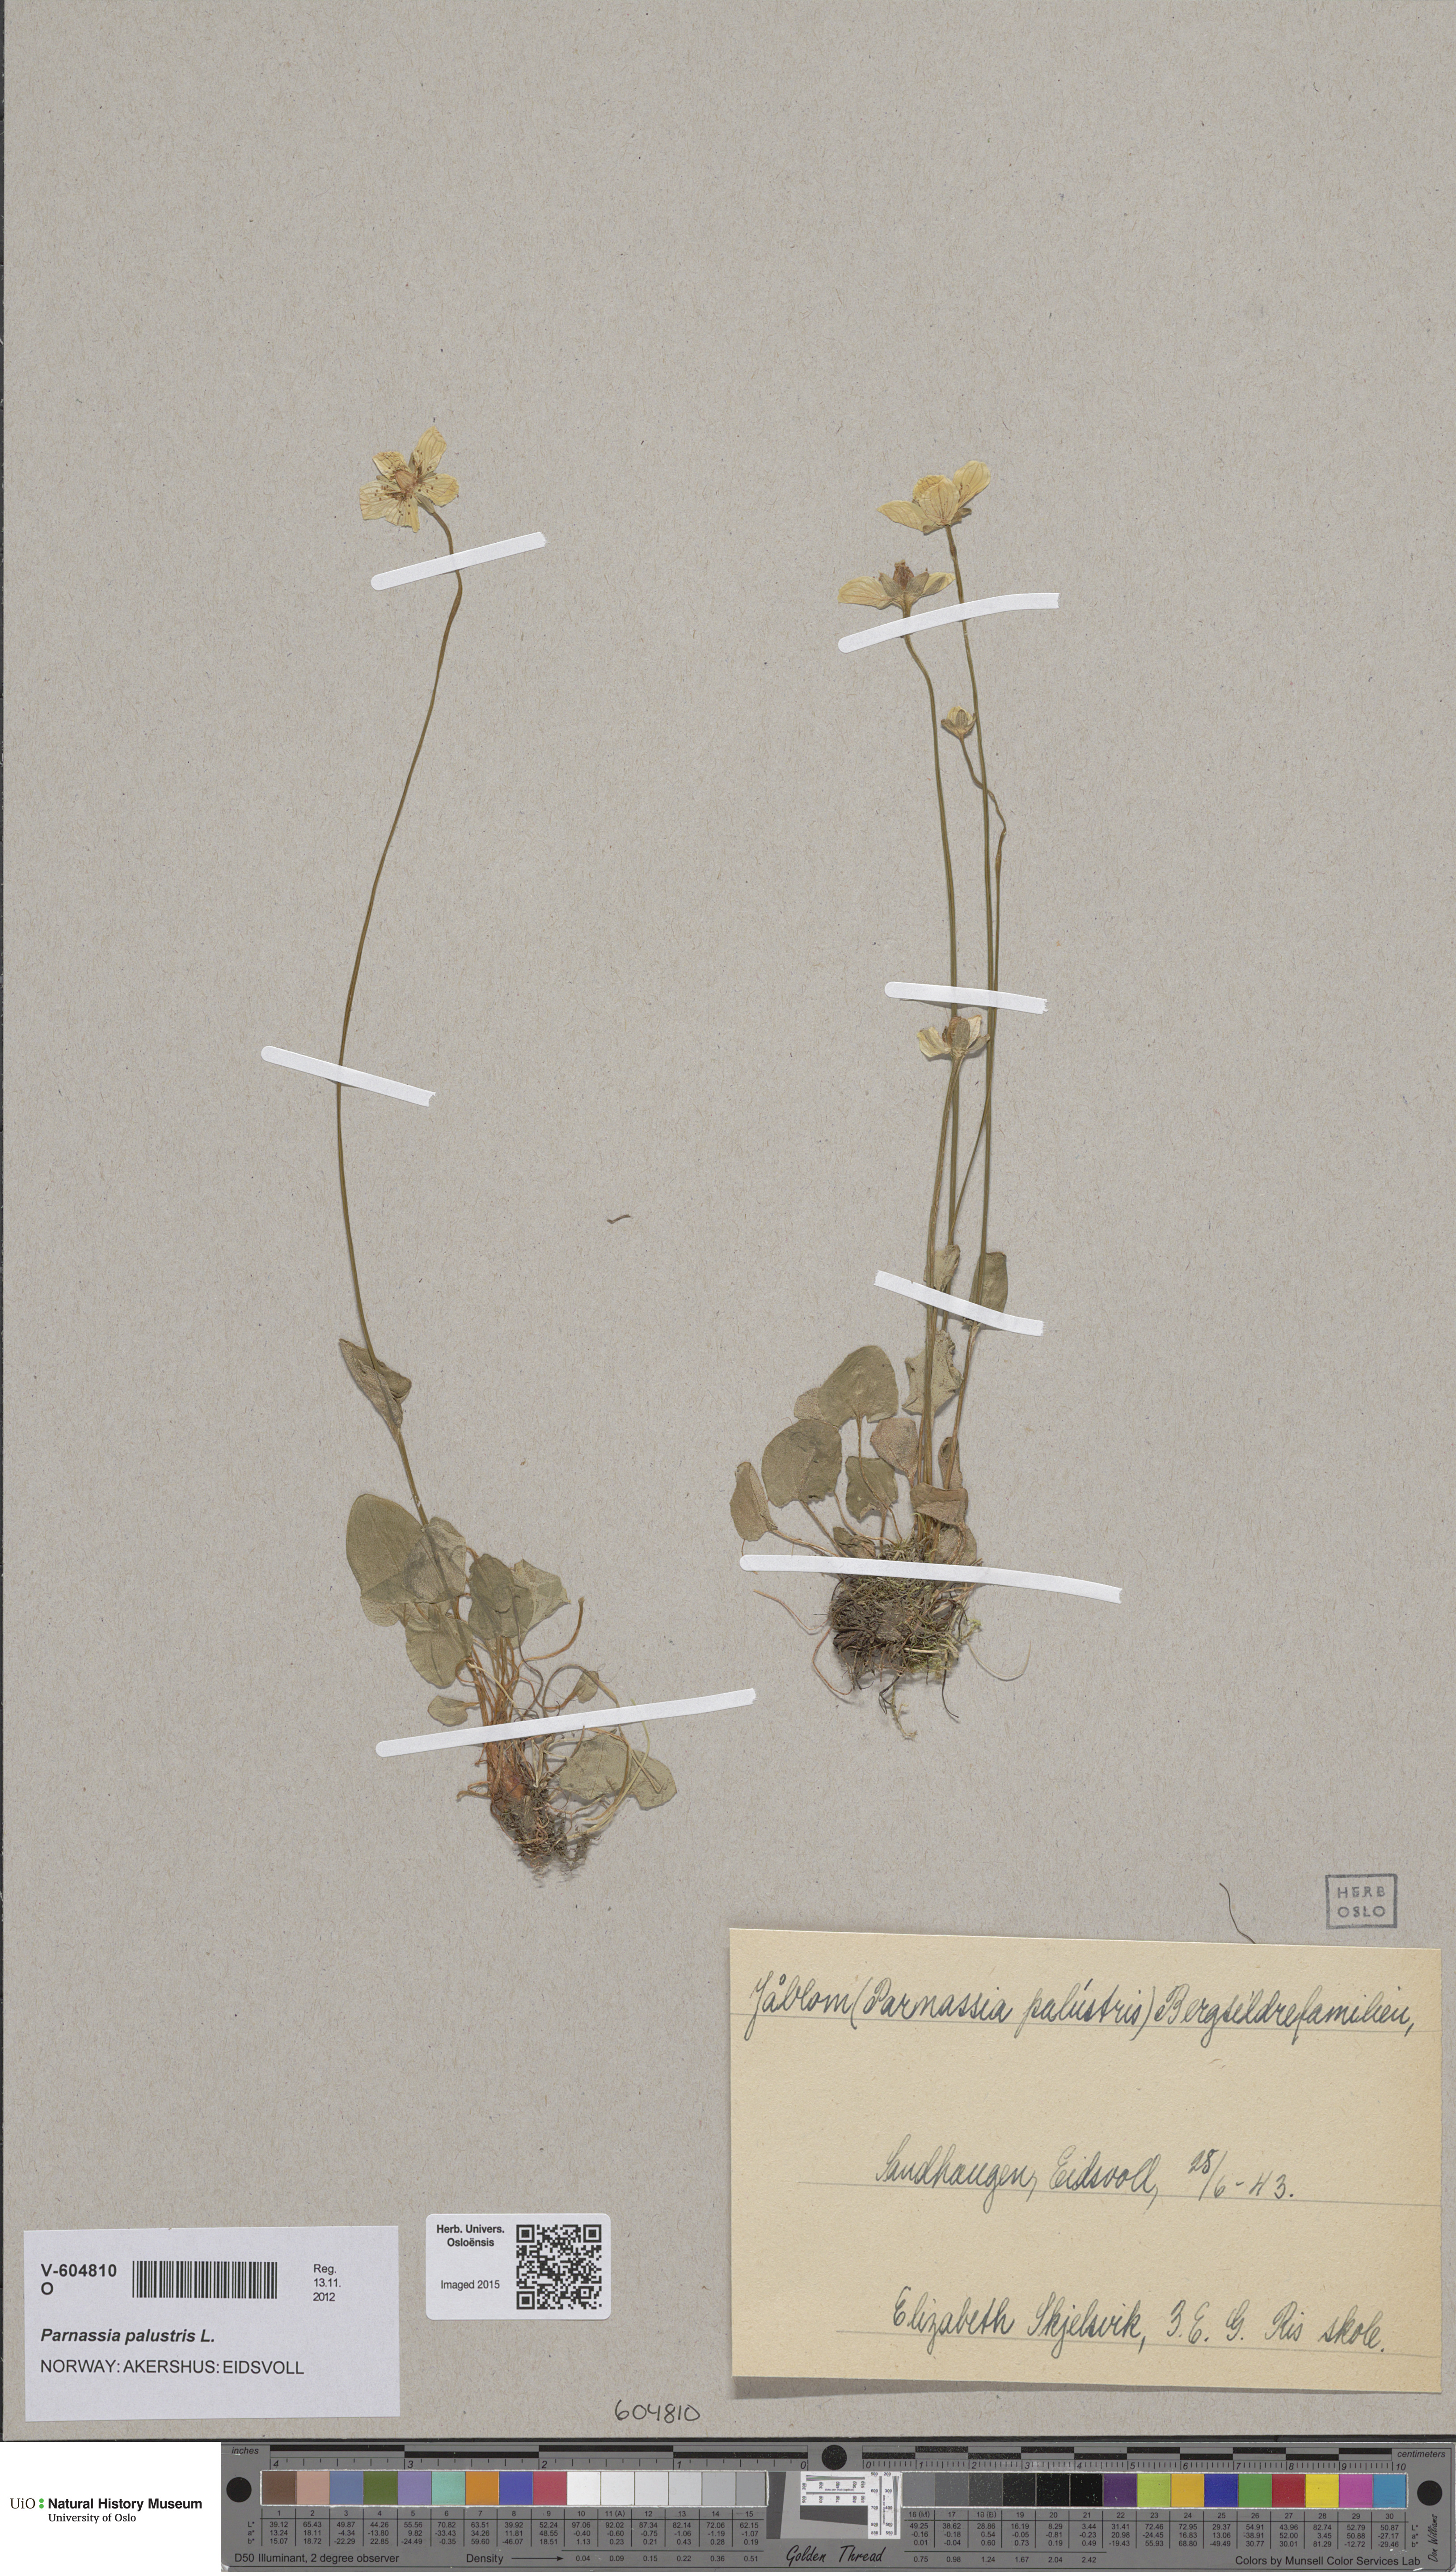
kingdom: Plantae
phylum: Tracheophyta
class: Magnoliopsida
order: Celastrales
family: Parnassiaceae
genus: Parnassia
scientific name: Parnassia palustris
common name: Grass-of-parnassus
